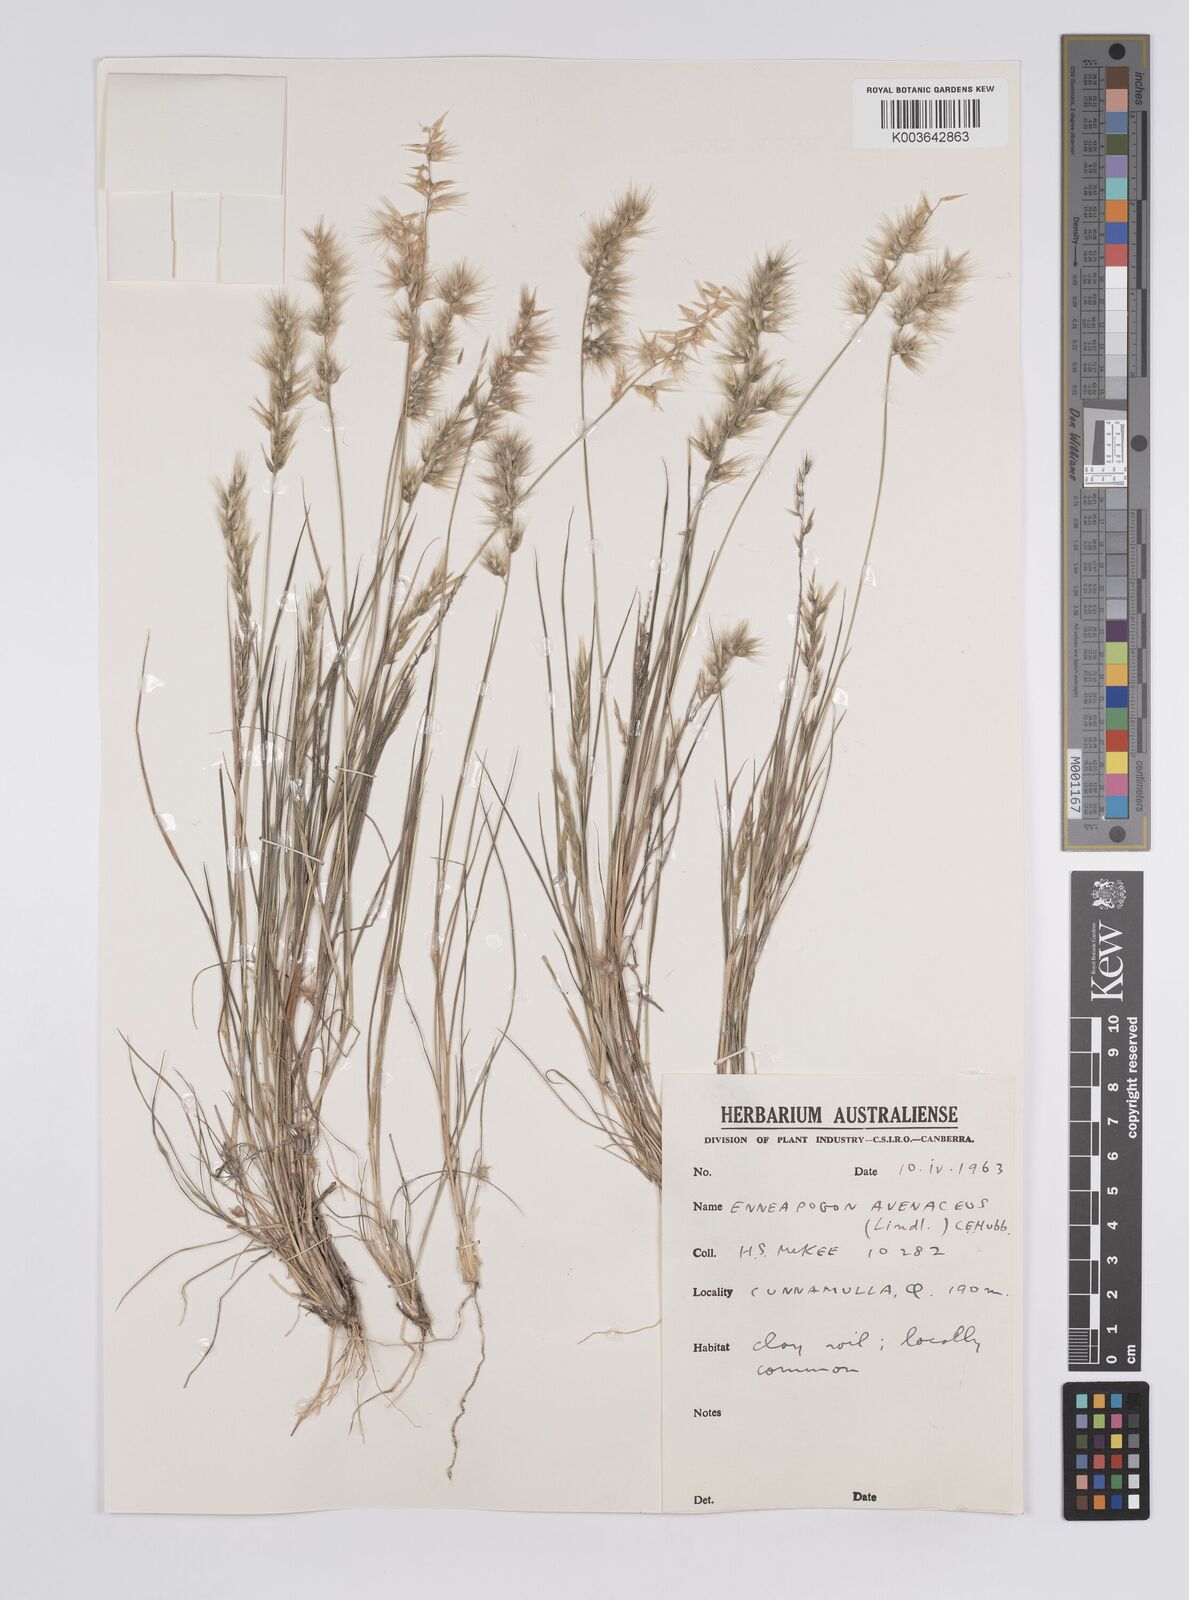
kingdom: Plantae
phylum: Tracheophyta
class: Liliopsida
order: Poales
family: Poaceae
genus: Enneapogon
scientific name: Enneapogon avenaceus
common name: Hairy oat grass
